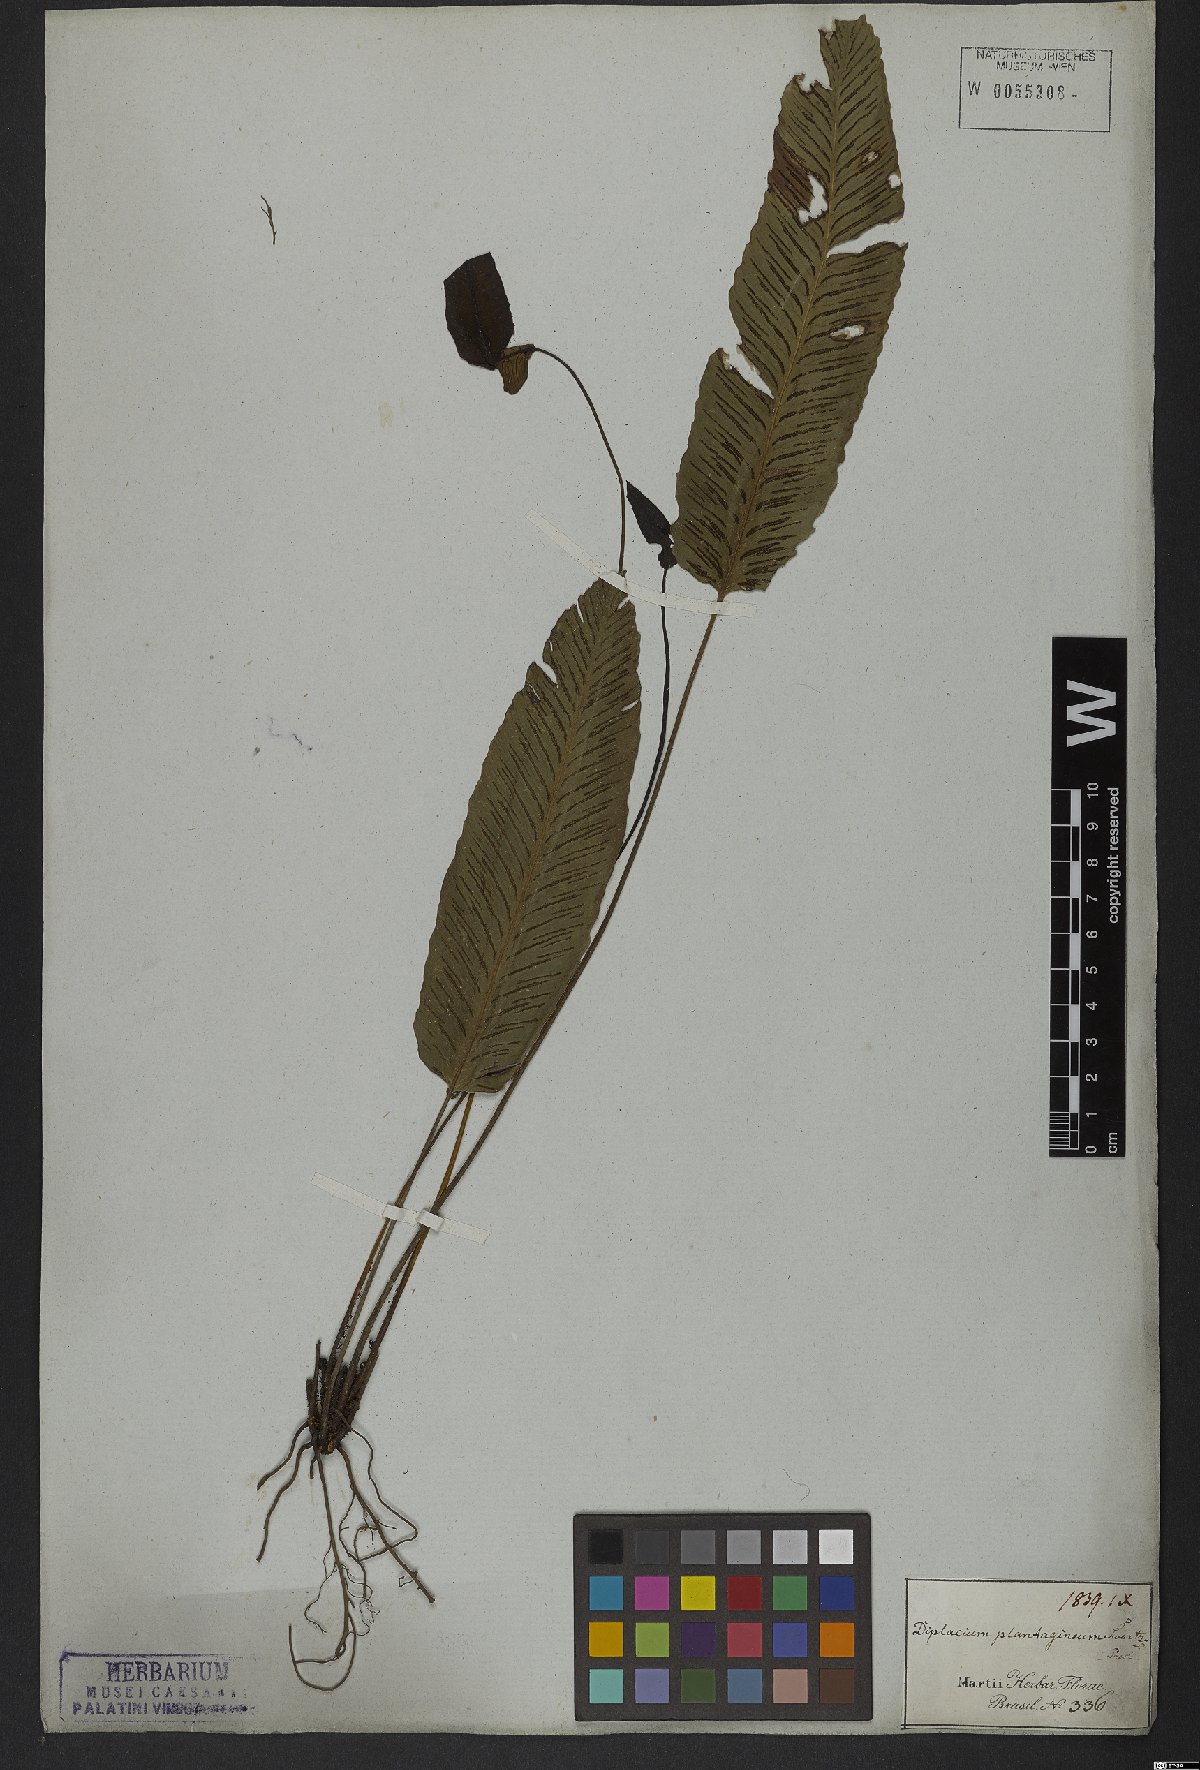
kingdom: Plantae
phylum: Tracheophyta
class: Polypodiopsida
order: Polypodiales
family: Athyriaceae
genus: Diplazium
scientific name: Diplazium plantaginifolium
